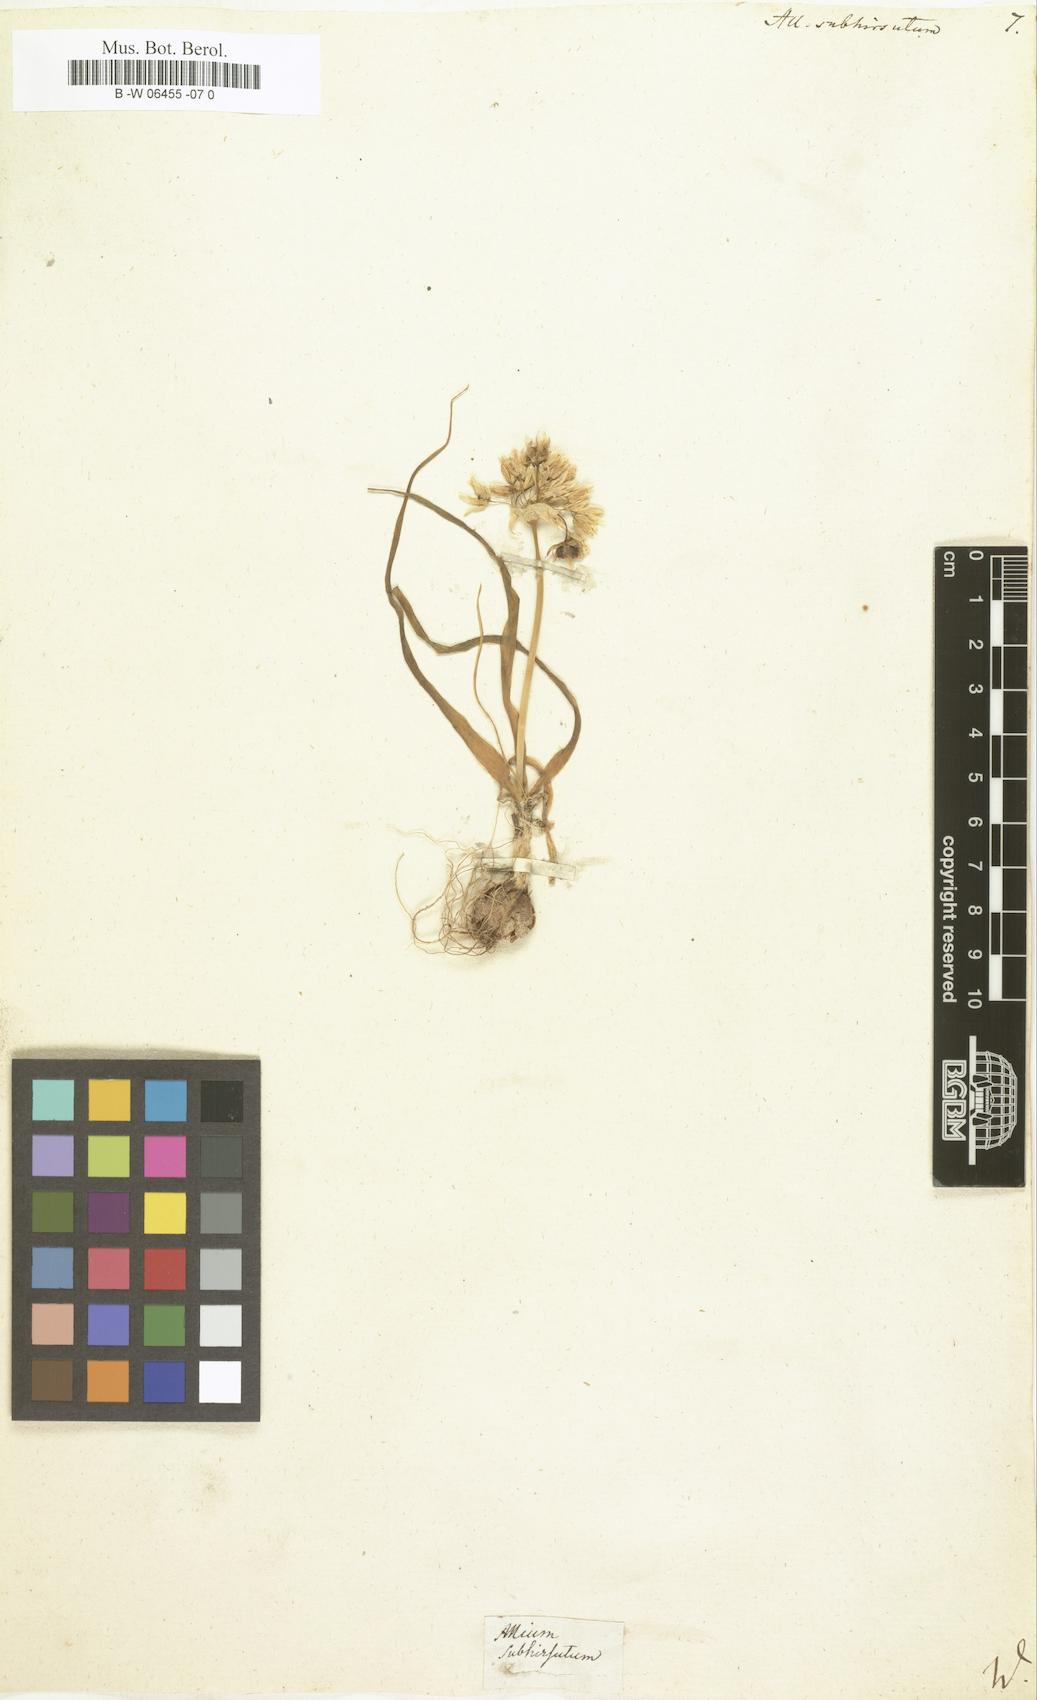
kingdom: Plantae
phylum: Tracheophyta
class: Liliopsida
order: Asparagales
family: Amaryllidaceae
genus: Allium
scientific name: Allium subhirsutum
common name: Hairy garlic
